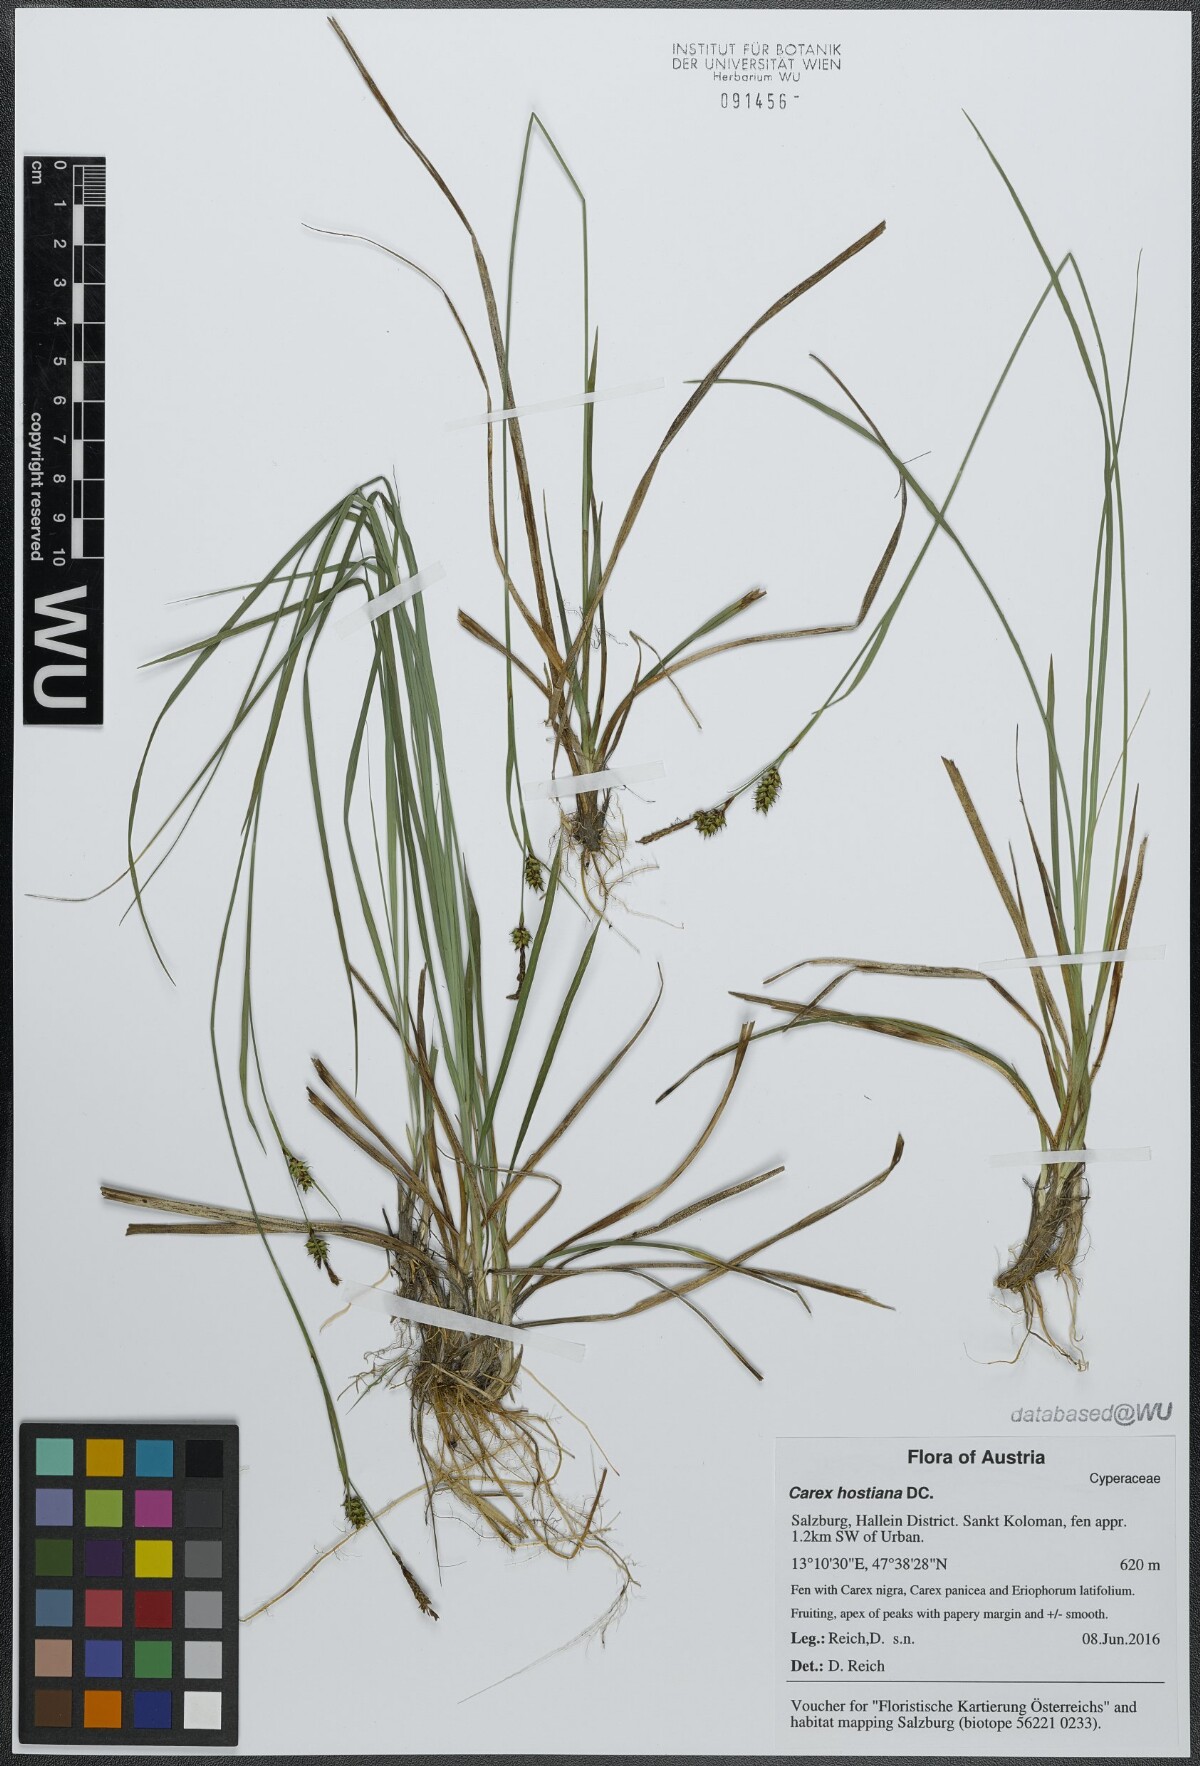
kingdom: Plantae
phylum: Tracheophyta
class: Liliopsida
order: Poales
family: Cyperaceae
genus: Carex
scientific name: Carex hostiana
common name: Tawny sedge
